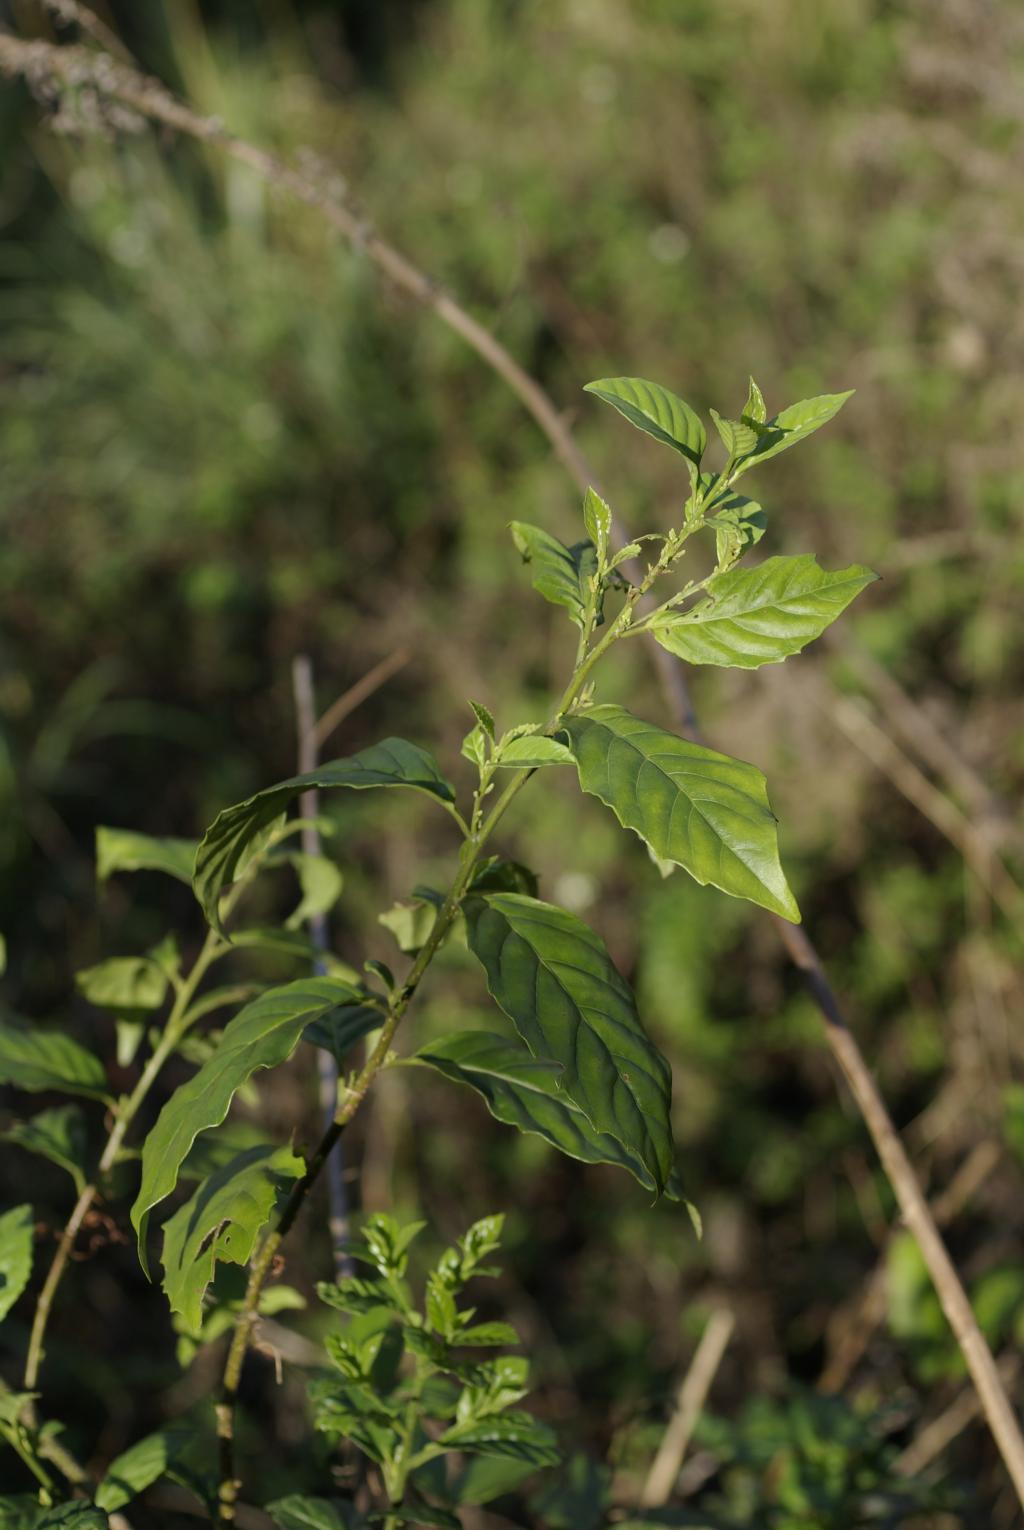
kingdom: Plantae
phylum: Tracheophyta
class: Magnoliopsida
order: Ericales
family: Primulaceae
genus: Maesa
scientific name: Maesa perlaria
